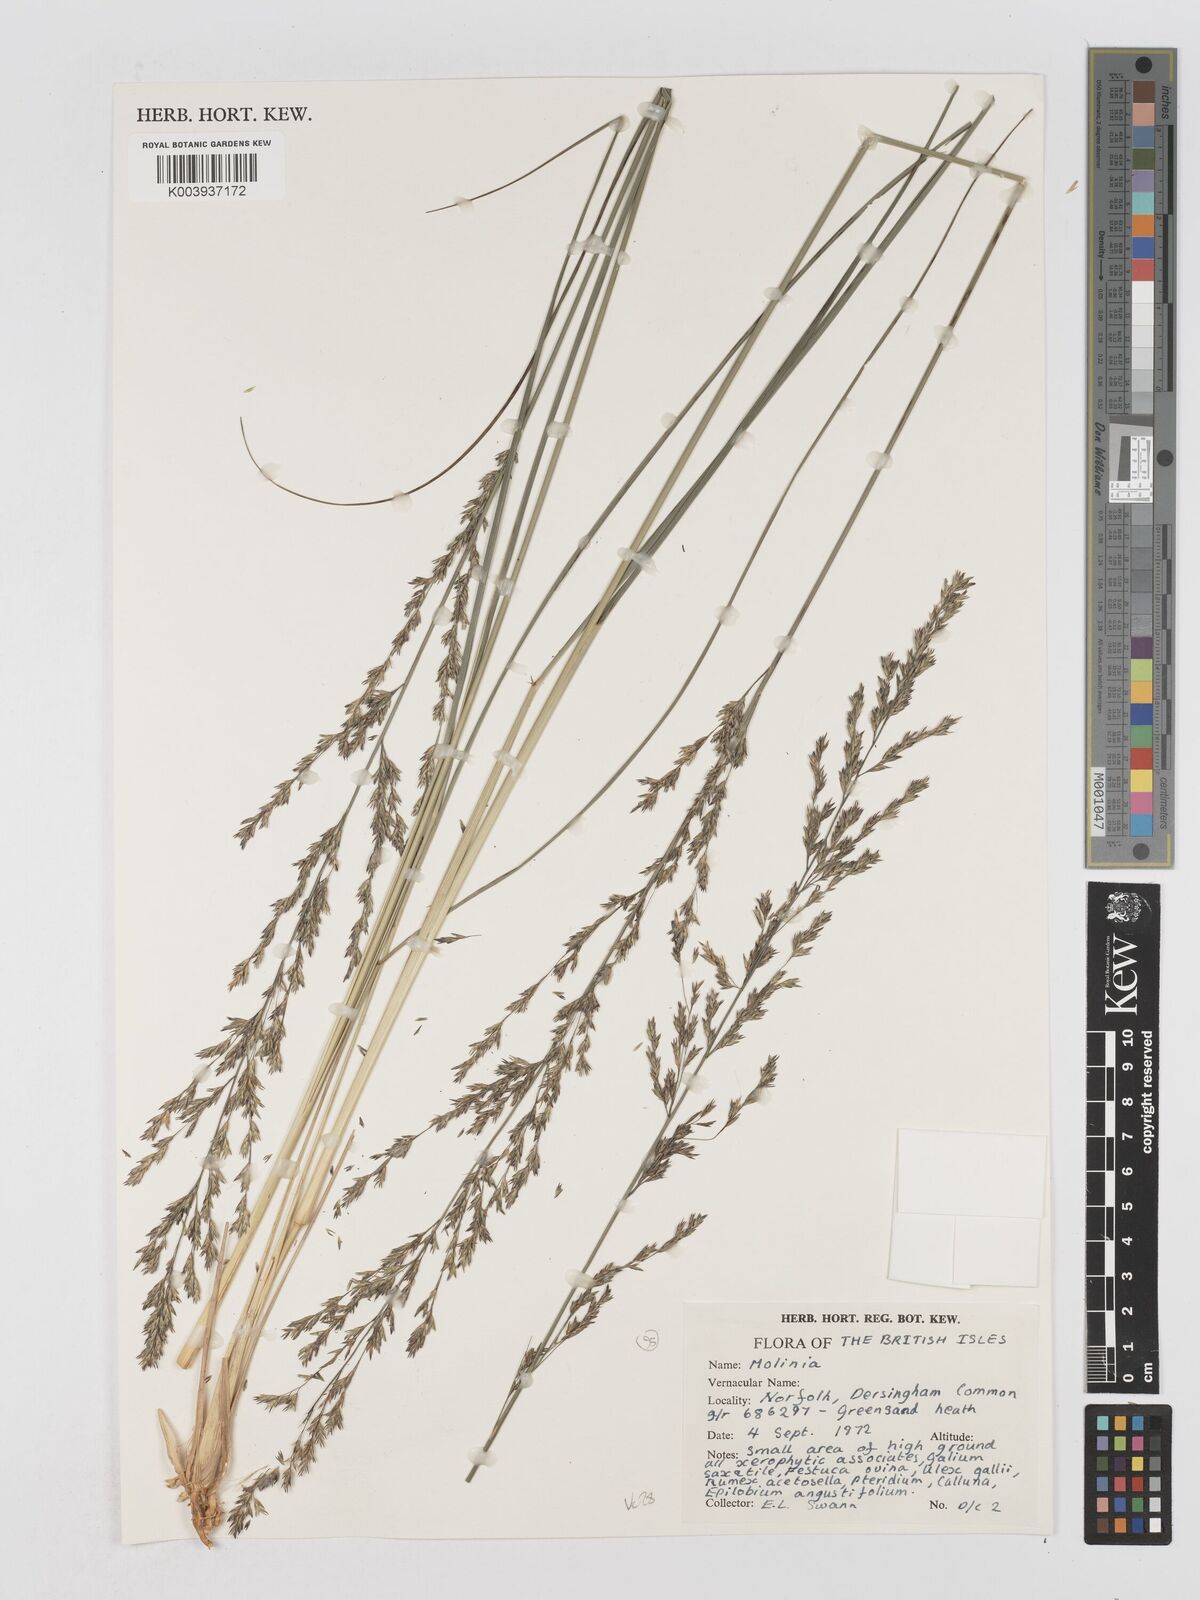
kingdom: Plantae
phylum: Tracheophyta
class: Liliopsida
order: Poales
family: Poaceae
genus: Molinia
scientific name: Molinia caerulea
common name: Purple moor-grass
